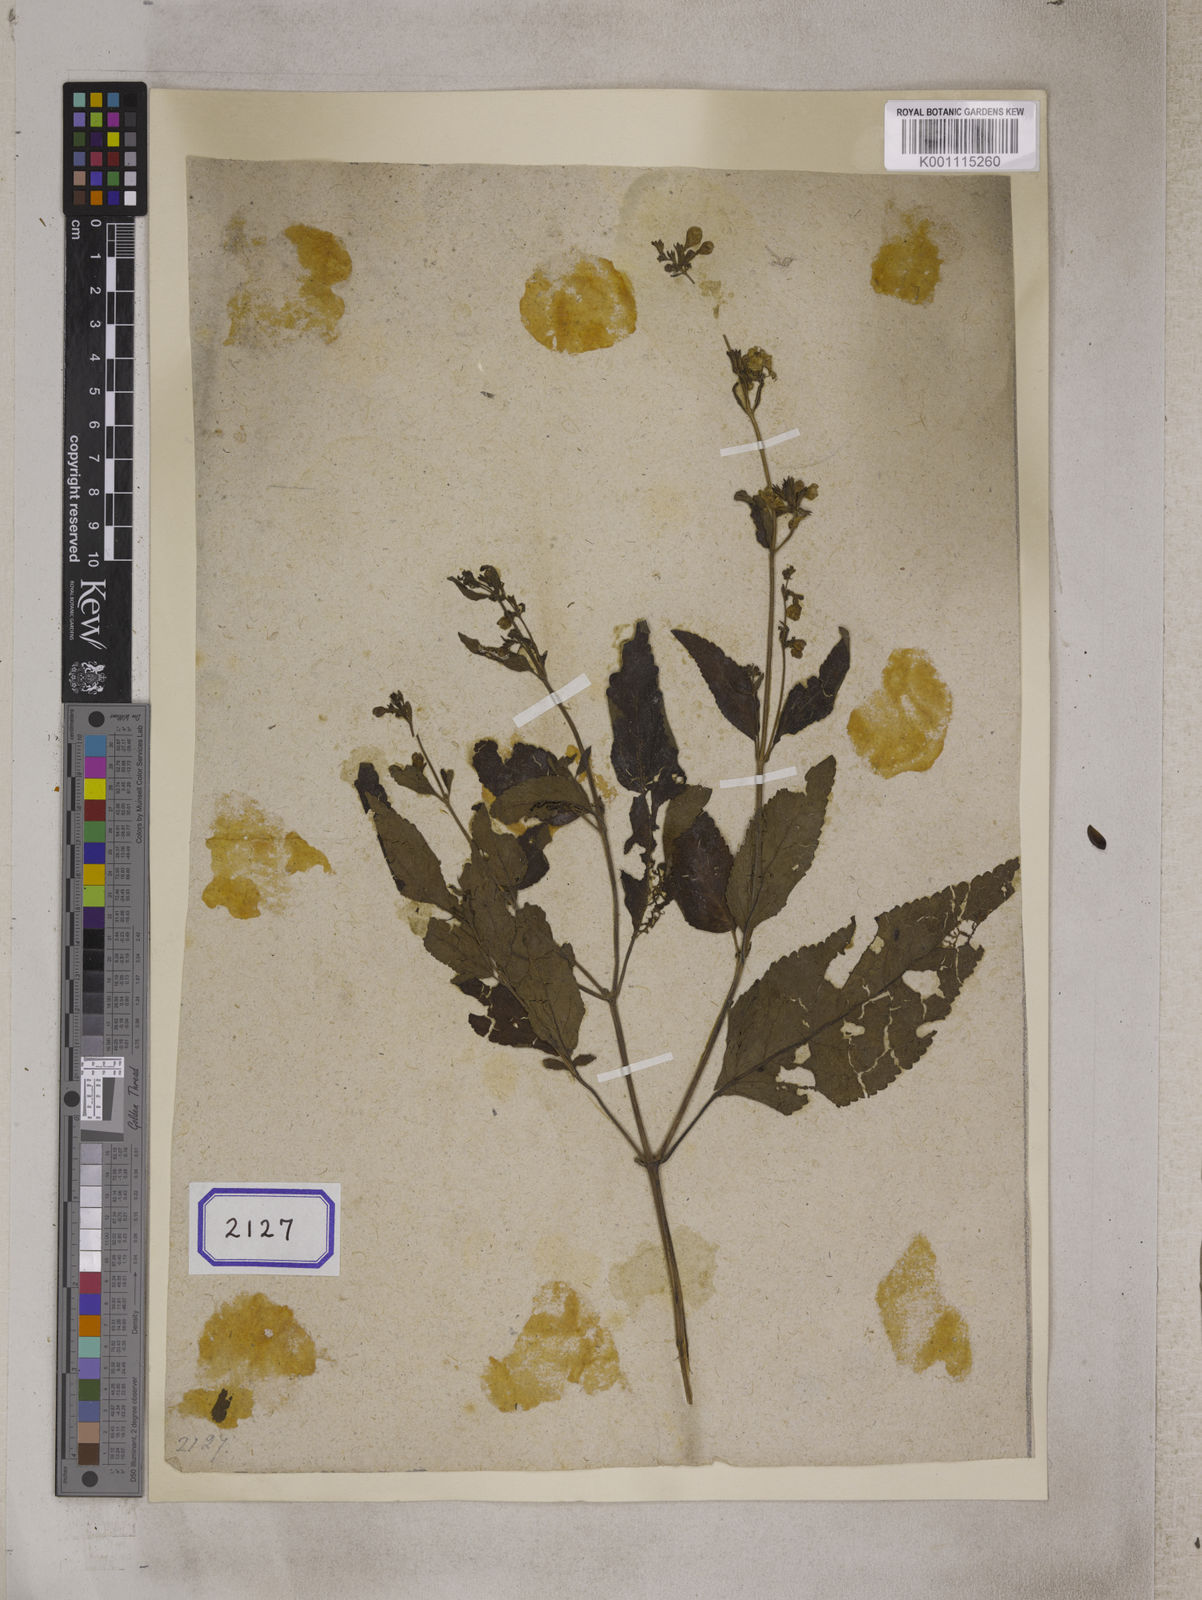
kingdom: Plantae
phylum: Tracheophyta
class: Magnoliopsida
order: Lamiales
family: Lamiaceae
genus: Nepeta
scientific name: Nepeta govaniana
